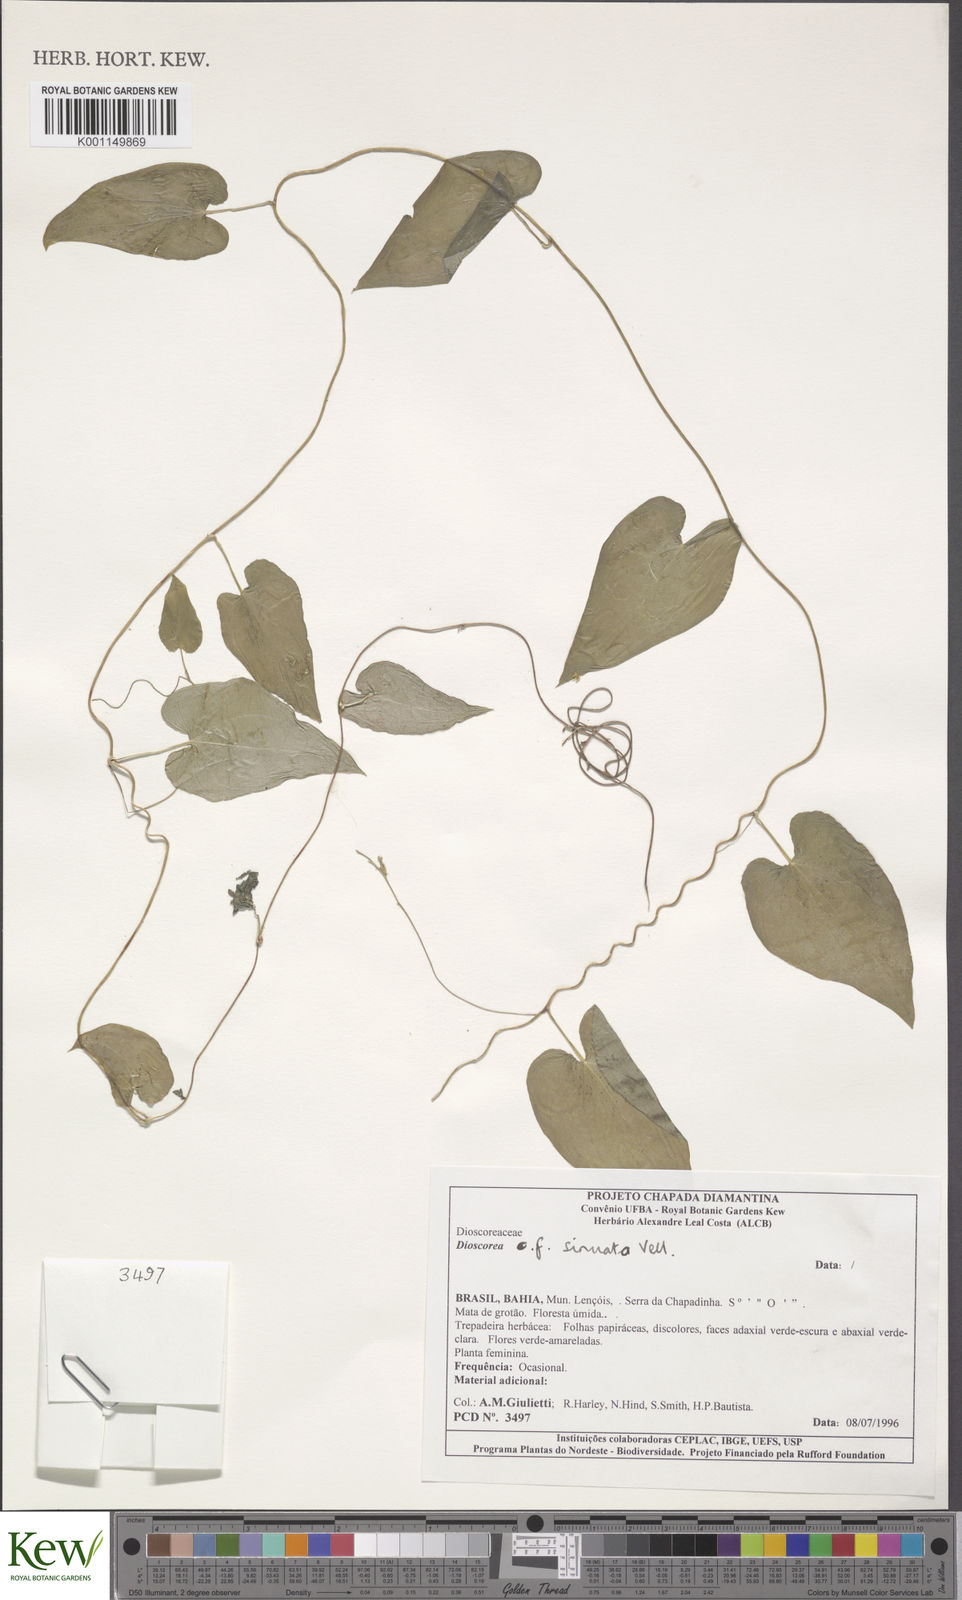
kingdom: Plantae
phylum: Tracheophyta
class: Liliopsida
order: Dioscoreales
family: Dioscoreaceae
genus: Dioscorea
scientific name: Dioscorea sinuata
